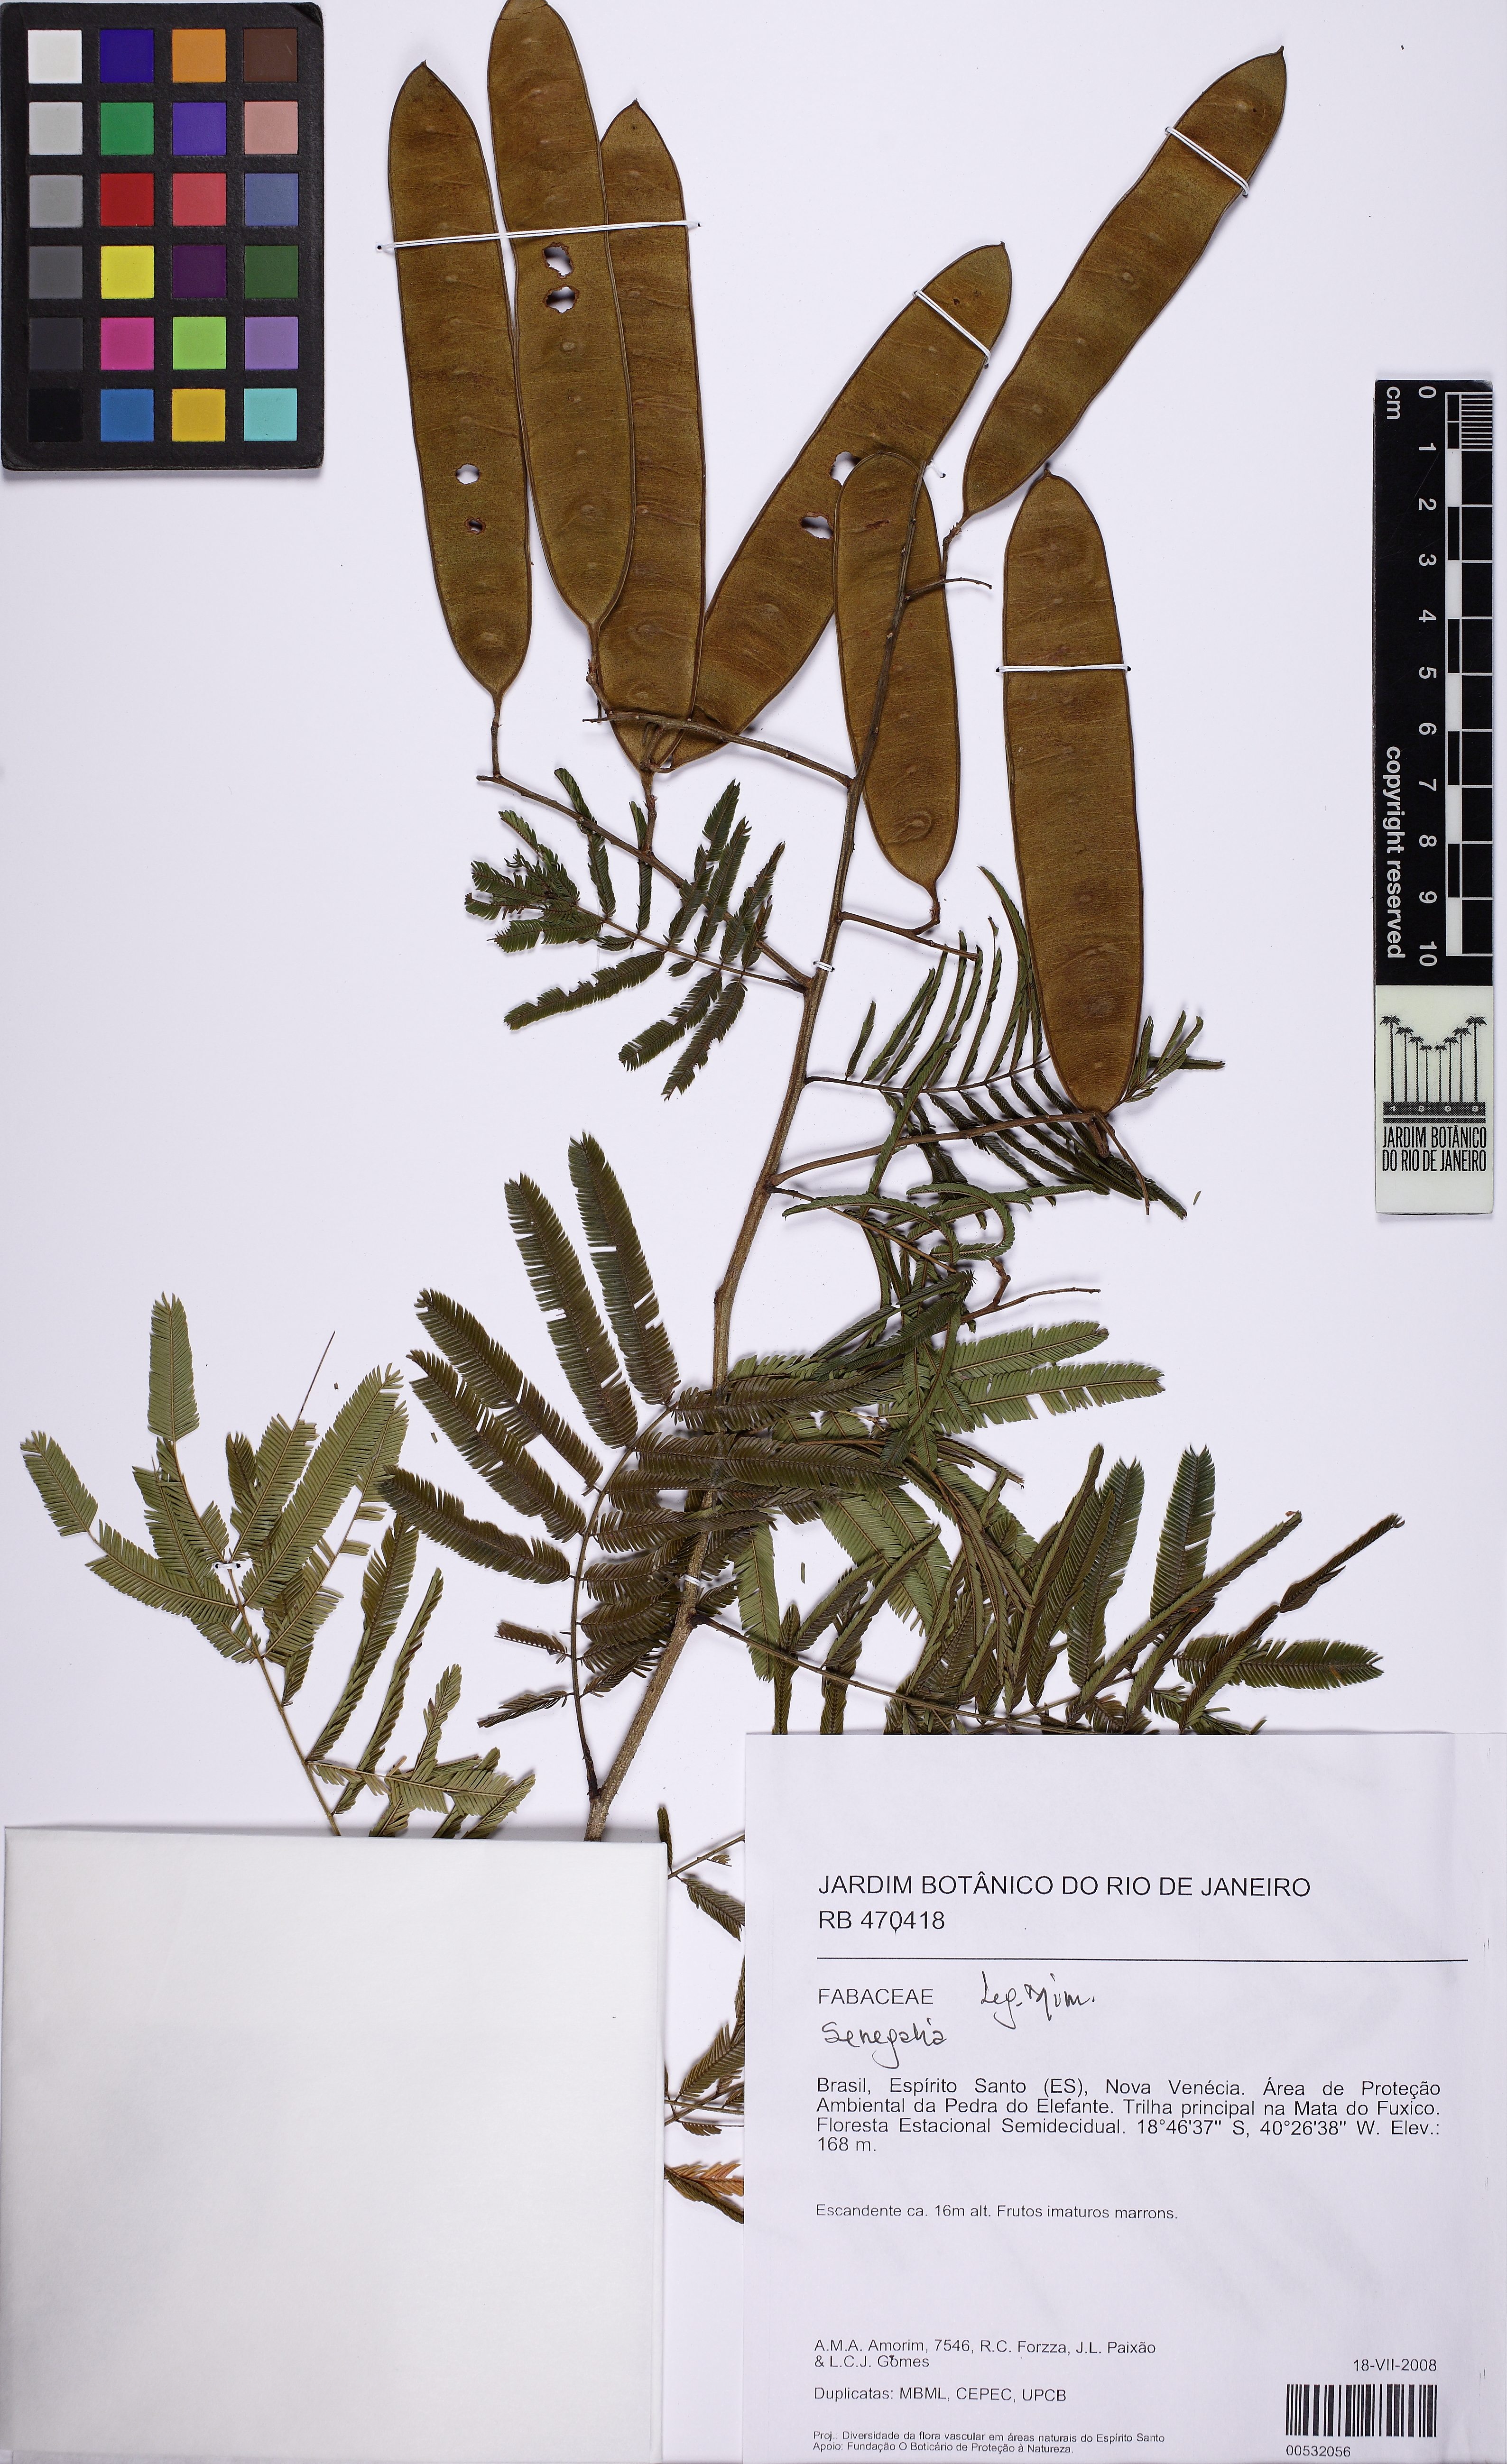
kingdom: Plantae
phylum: Tracheophyta
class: Magnoliopsida
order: Fabales
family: Fabaceae
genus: Senegalia
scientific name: Senegalia tenuifolia
